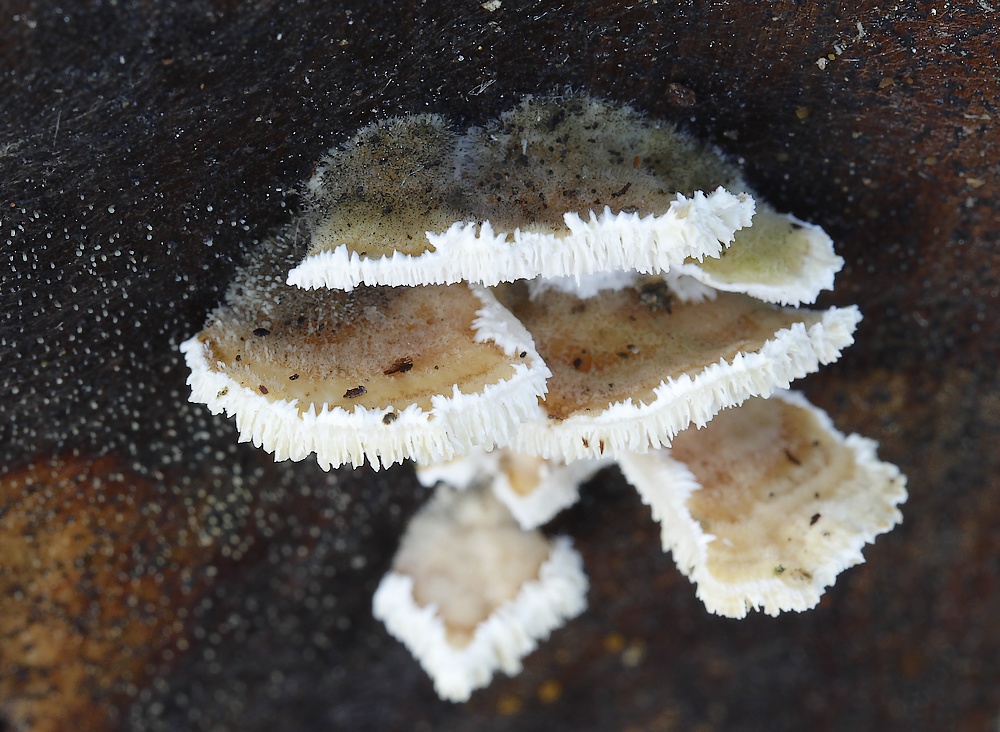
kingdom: Fungi
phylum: Basidiomycota
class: Agaricomycetes
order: Polyporales
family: Polyporaceae
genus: Trametes
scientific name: Trametes
